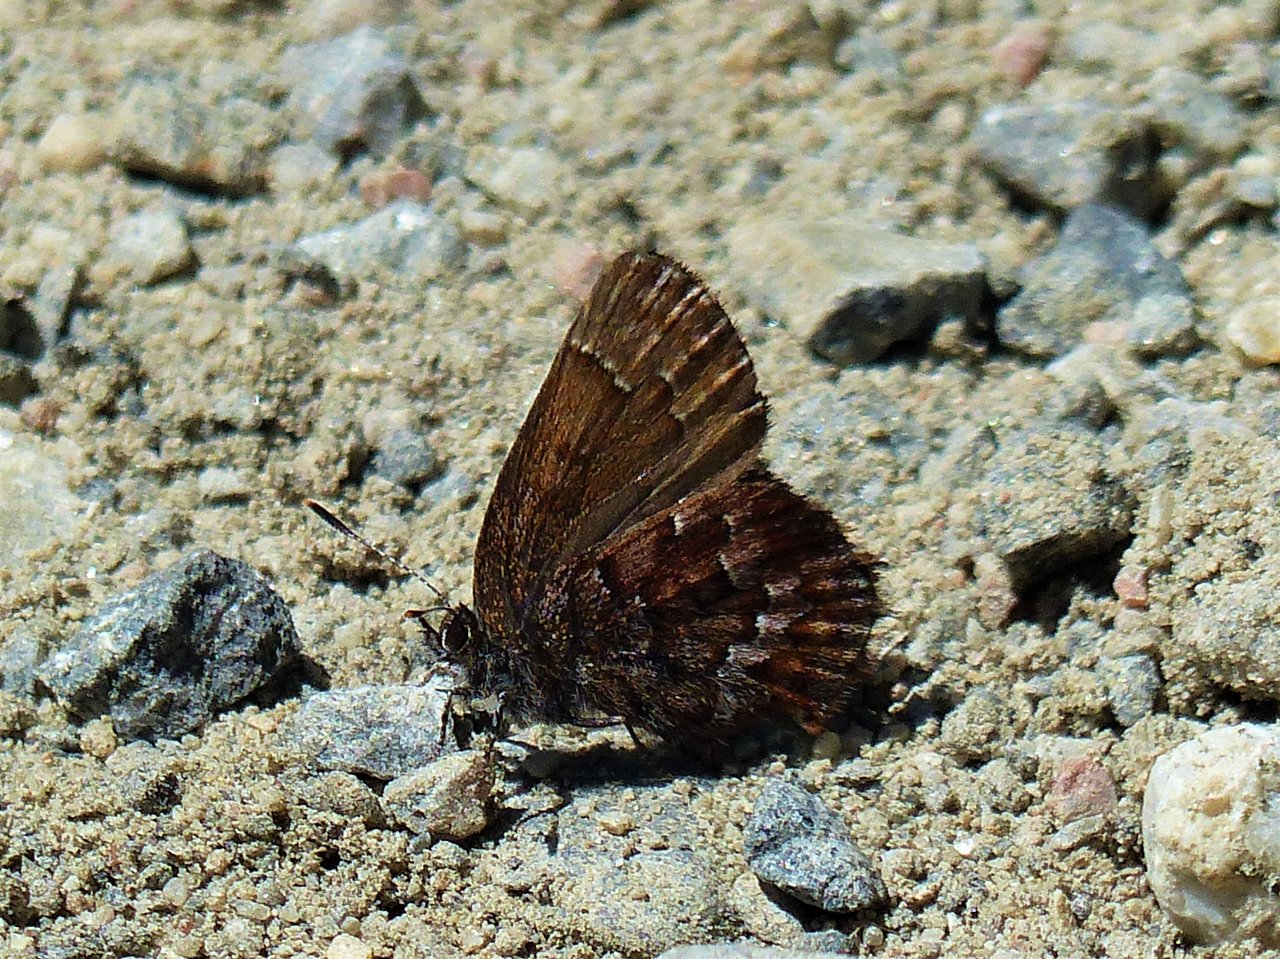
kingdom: Animalia
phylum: Arthropoda
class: Insecta
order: Lepidoptera
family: Lycaenidae
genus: Incisalia
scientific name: Incisalia niphon
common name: Eastern Pine Elfin
